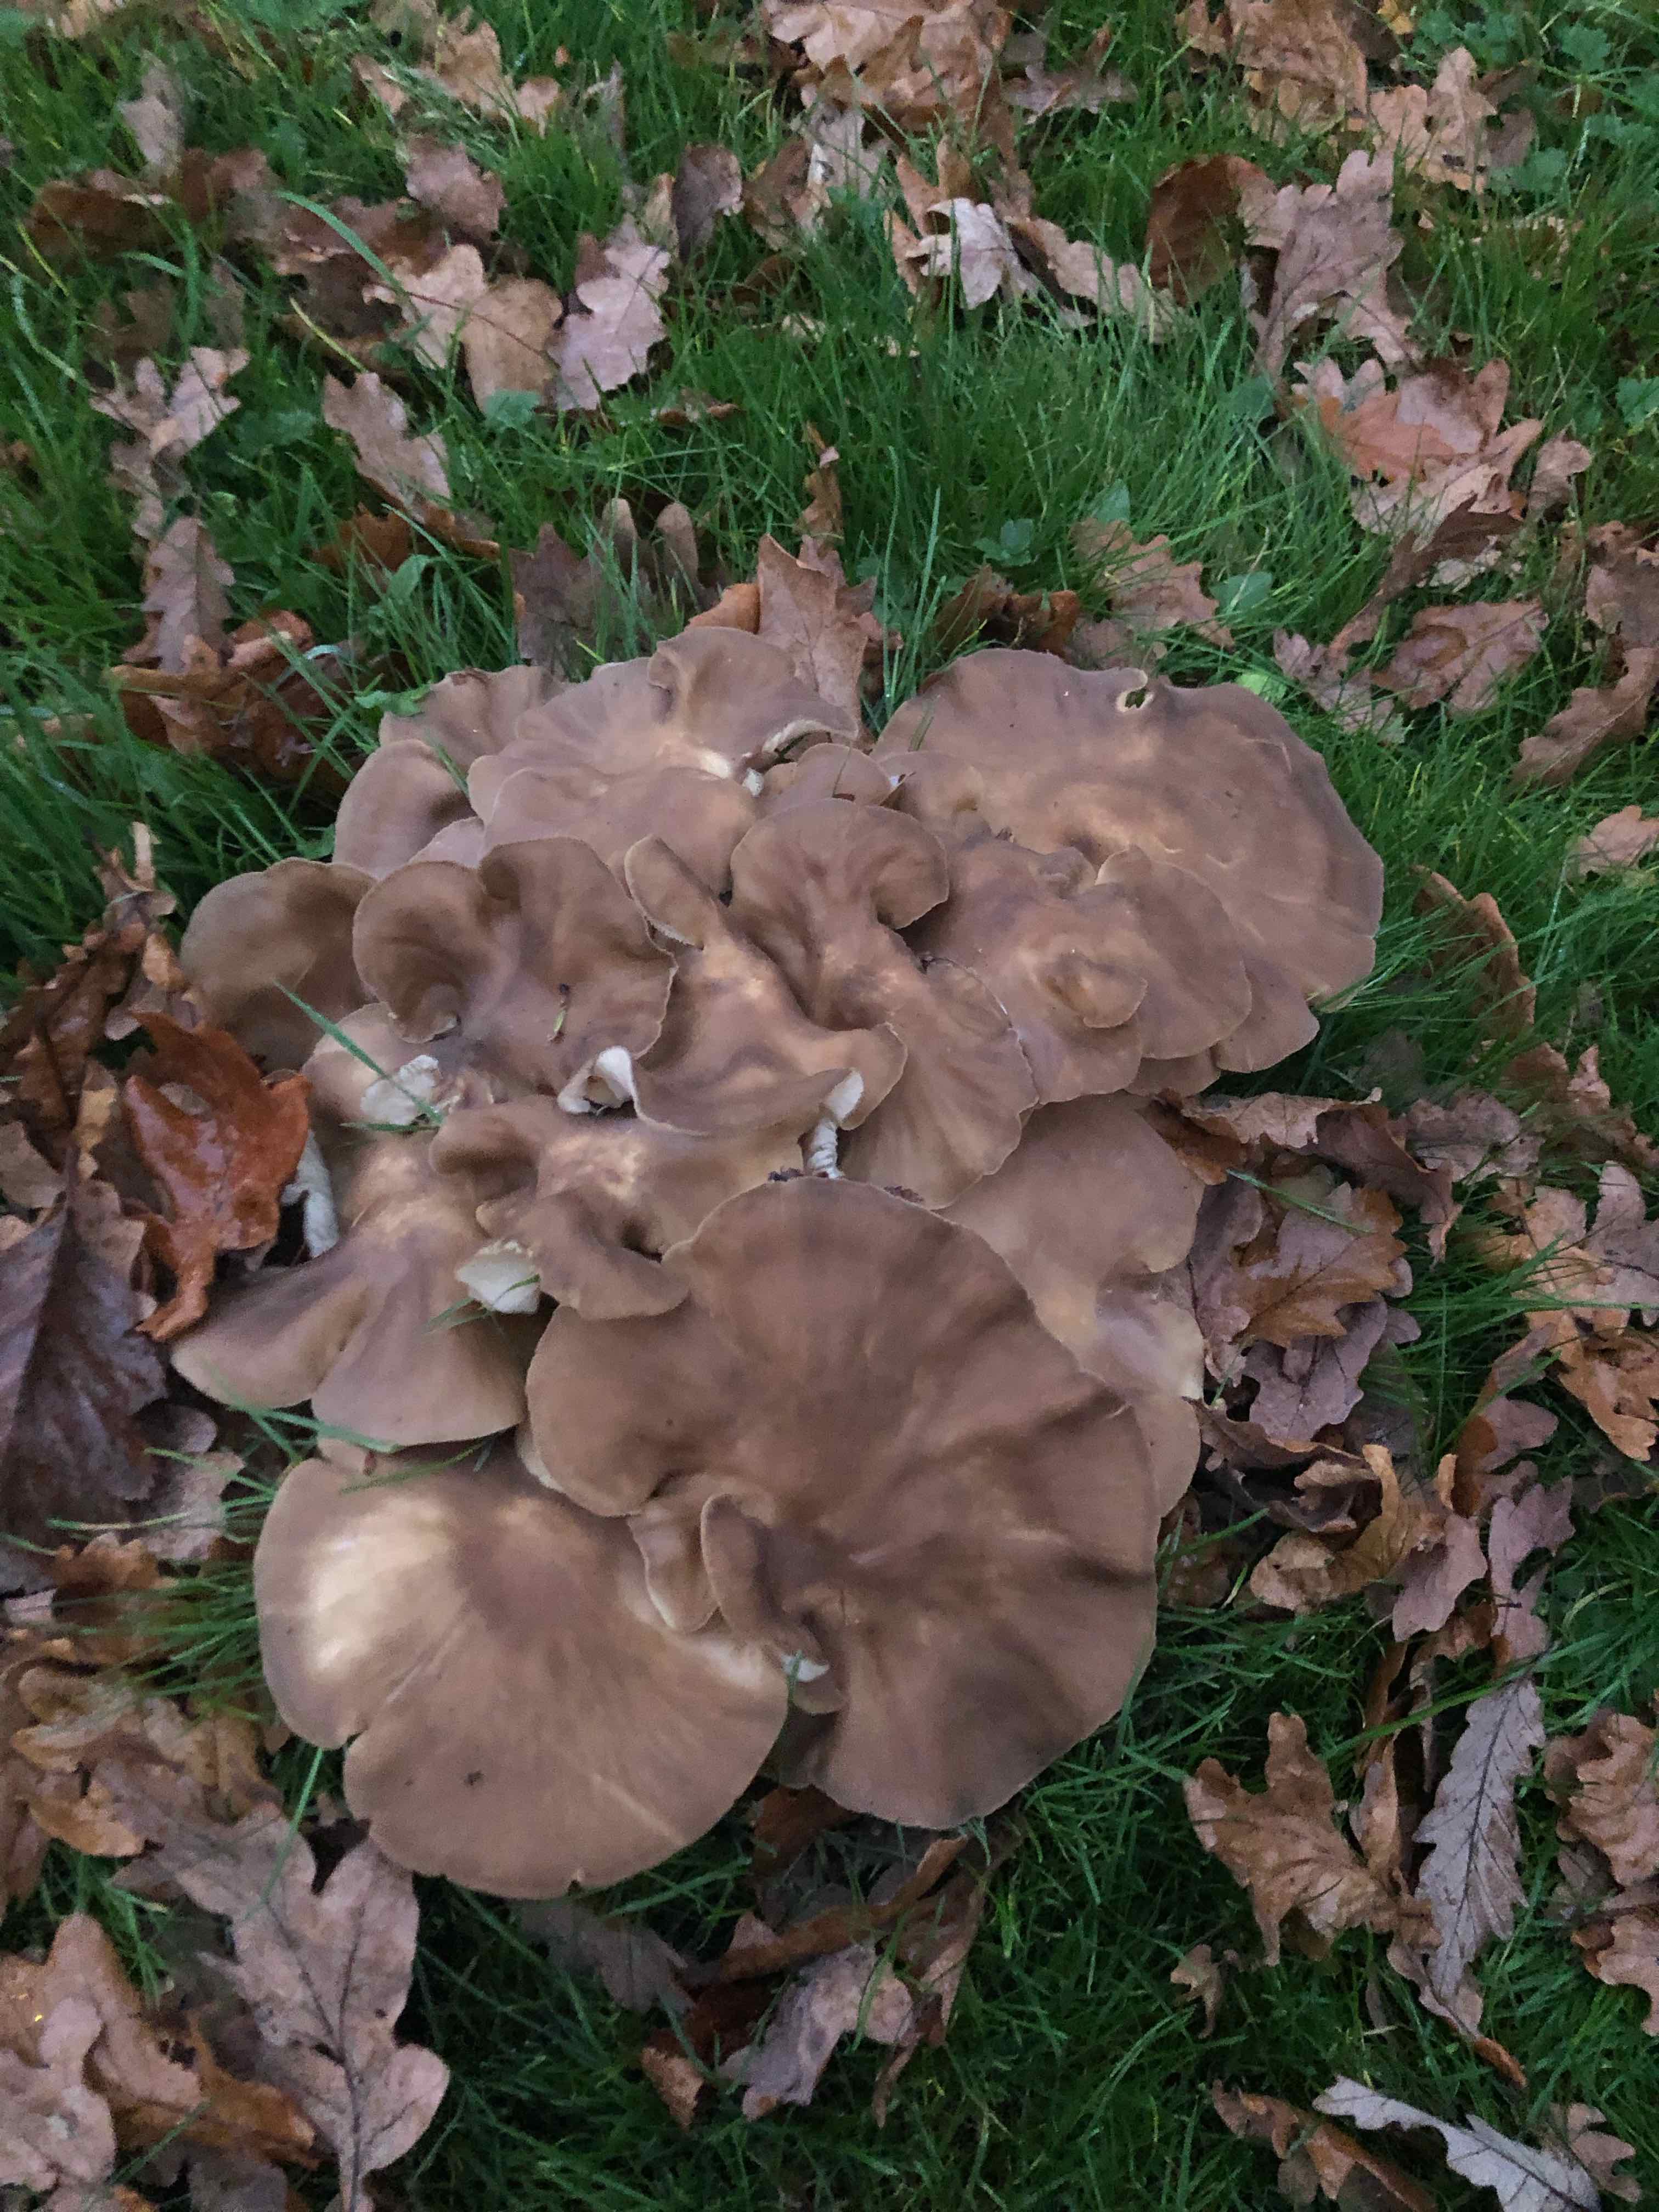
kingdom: Fungi
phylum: Basidiomycota
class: Agaricomycetes
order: Agaricales
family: Lyophyllaceae
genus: Lyophyllum
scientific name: Lyophyllum decastes
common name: røggrå gråblad
